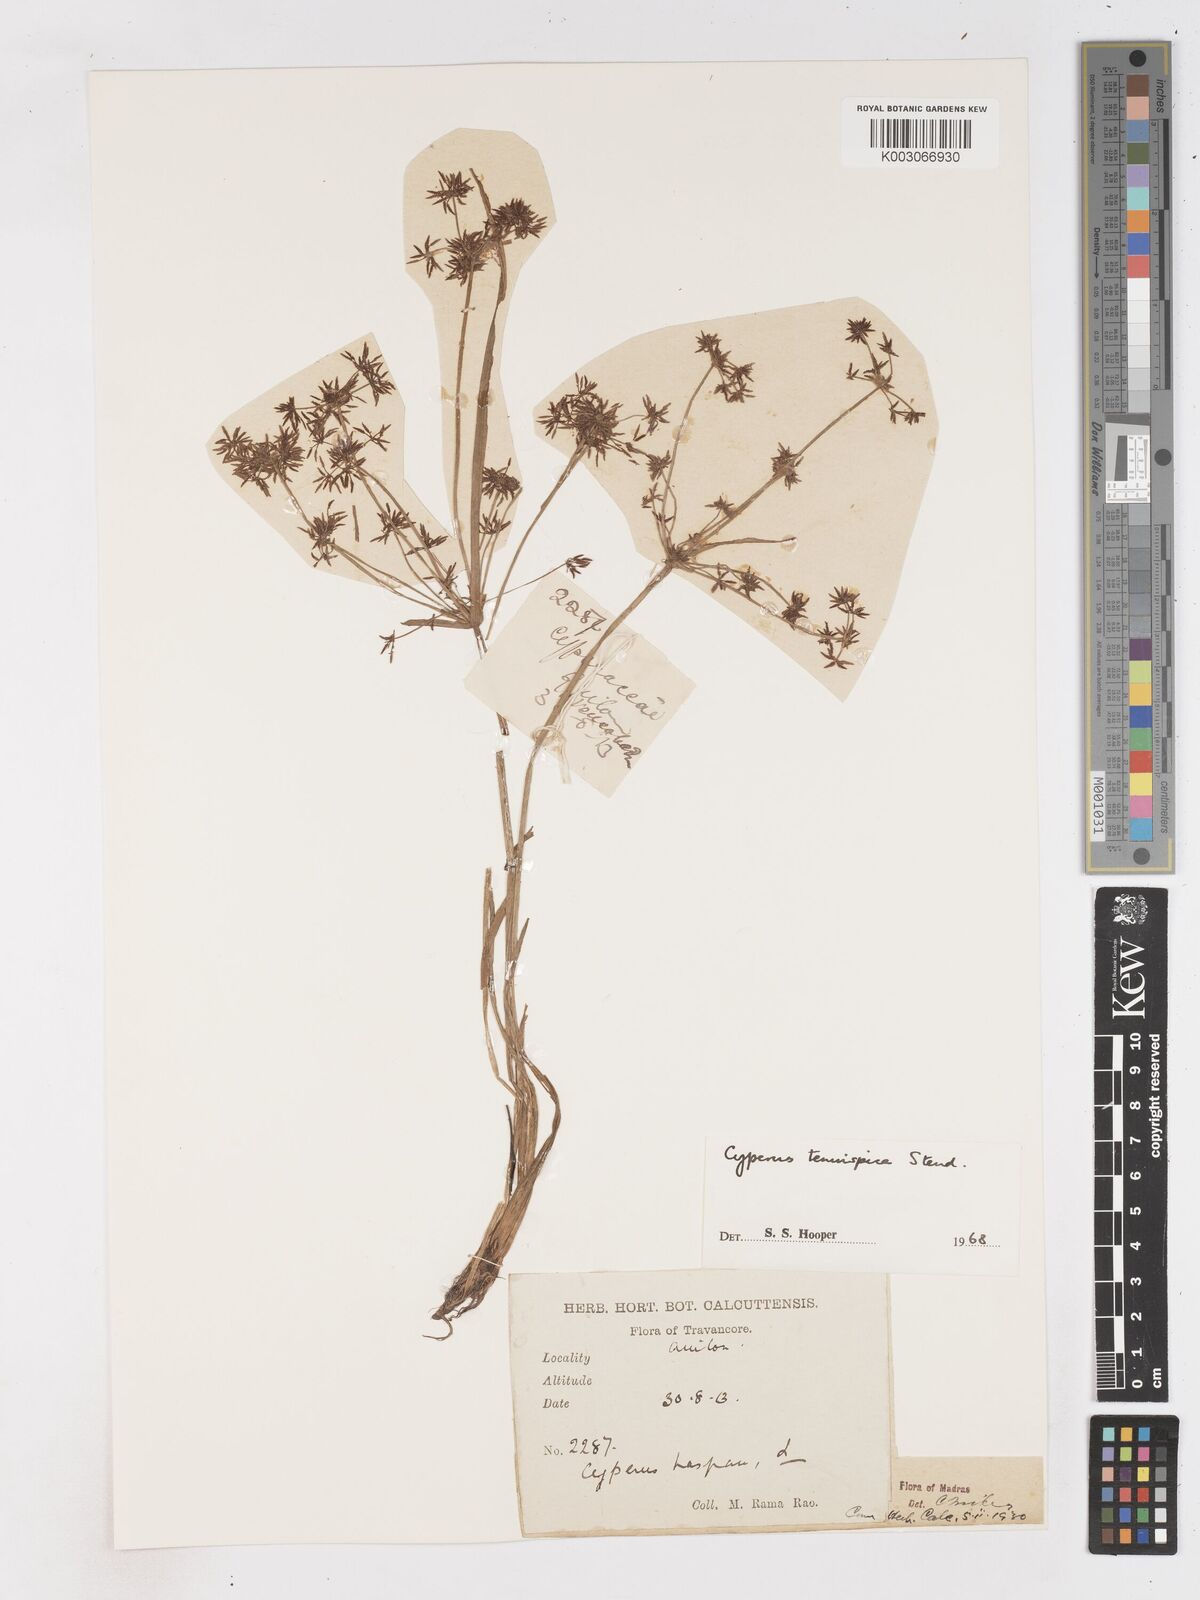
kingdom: Plantae
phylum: Tracheophyta
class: Liliopsida
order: Poales
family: Cyperaceae
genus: Cyperus
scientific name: Cyperus tenuispica
